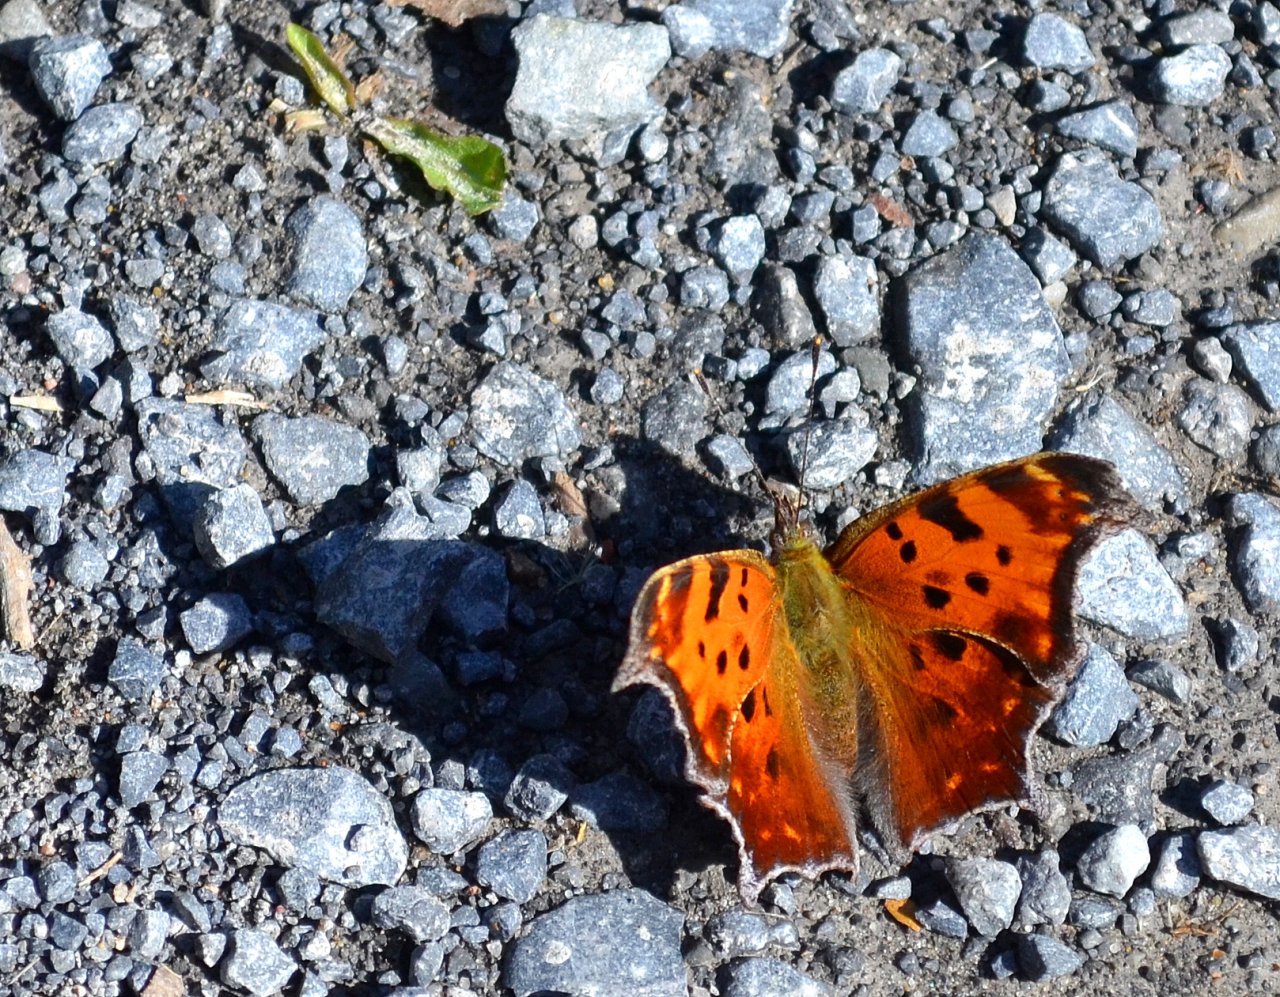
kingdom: Animalia
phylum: Arthropoda
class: Insecta
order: Lepidoptera
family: Nymphalidae
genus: Polygonia
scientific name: Polygonia comma
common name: Eastern Comma
